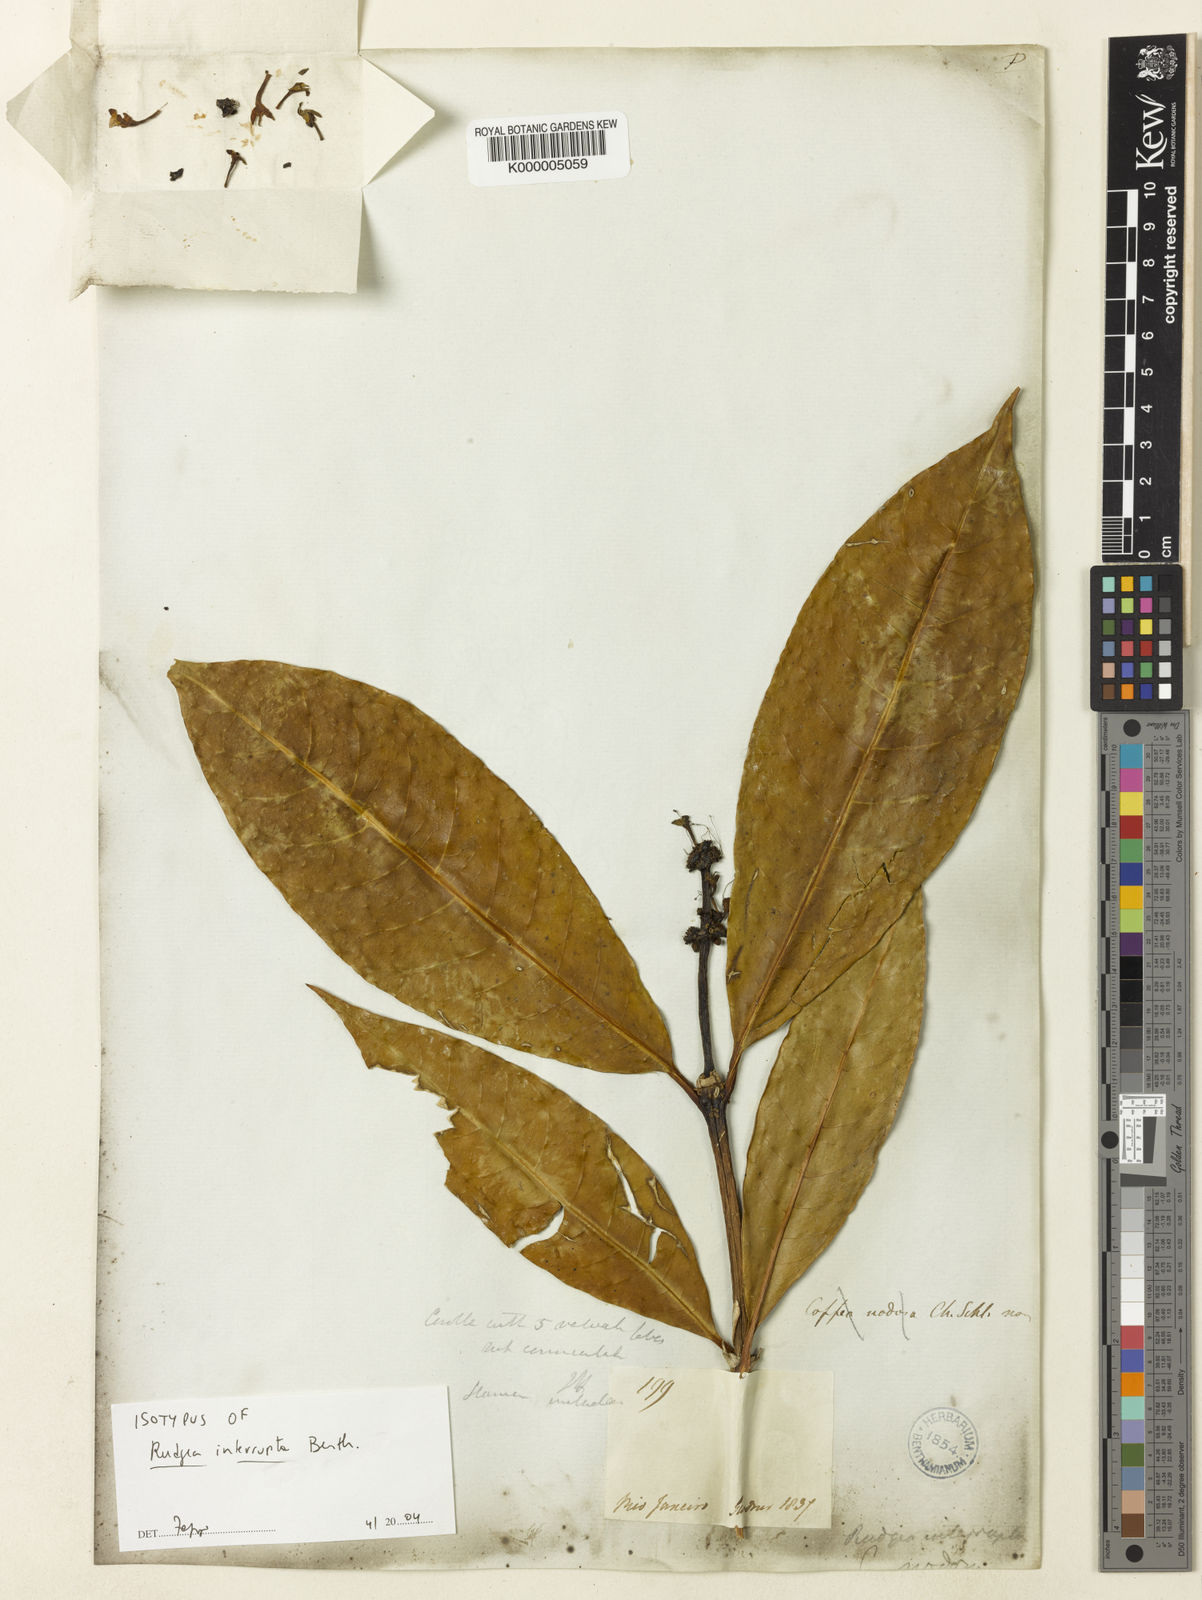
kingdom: Plantae
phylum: Tracheophyta
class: Magnoliopsida
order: Gentianales
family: Rubiaceae
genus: Rudgea
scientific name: Rudgea interrupta
